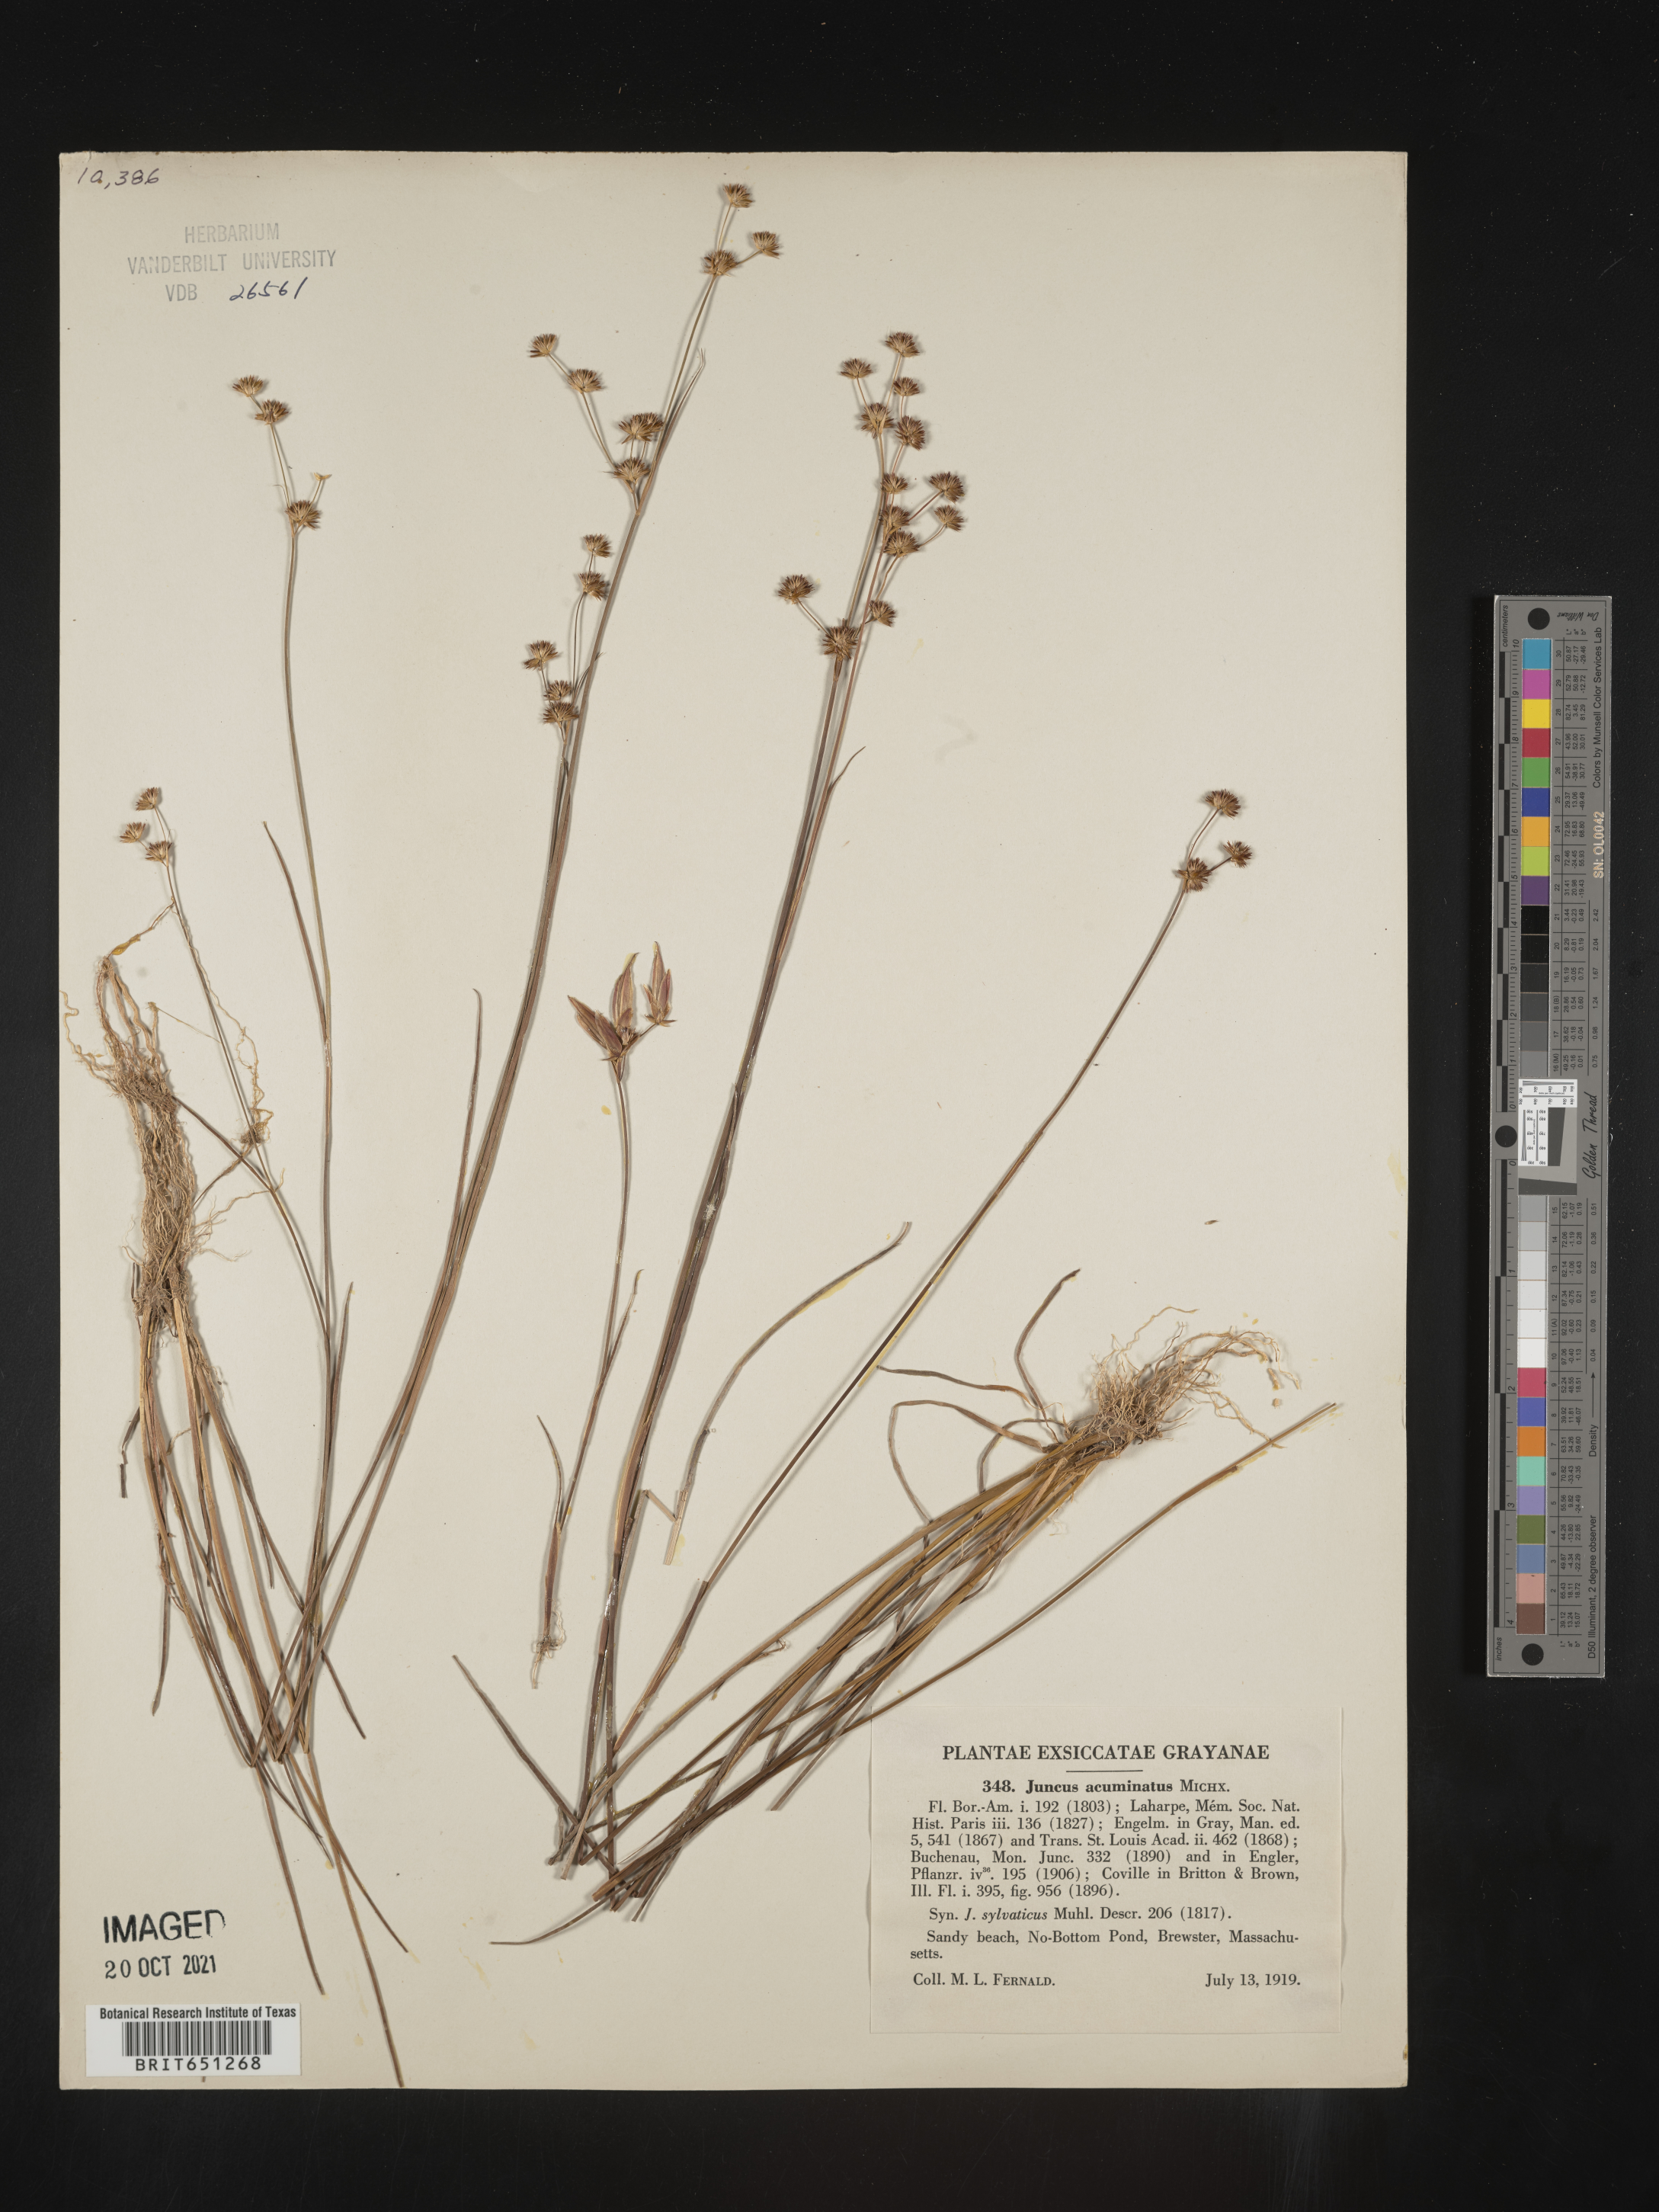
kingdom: Plantae
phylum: Tracheophyta
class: Liliopsida
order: Poales
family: Juncaceae
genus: Juncus
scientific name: Juncus acuminatus
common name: Knotty-leaved rush
